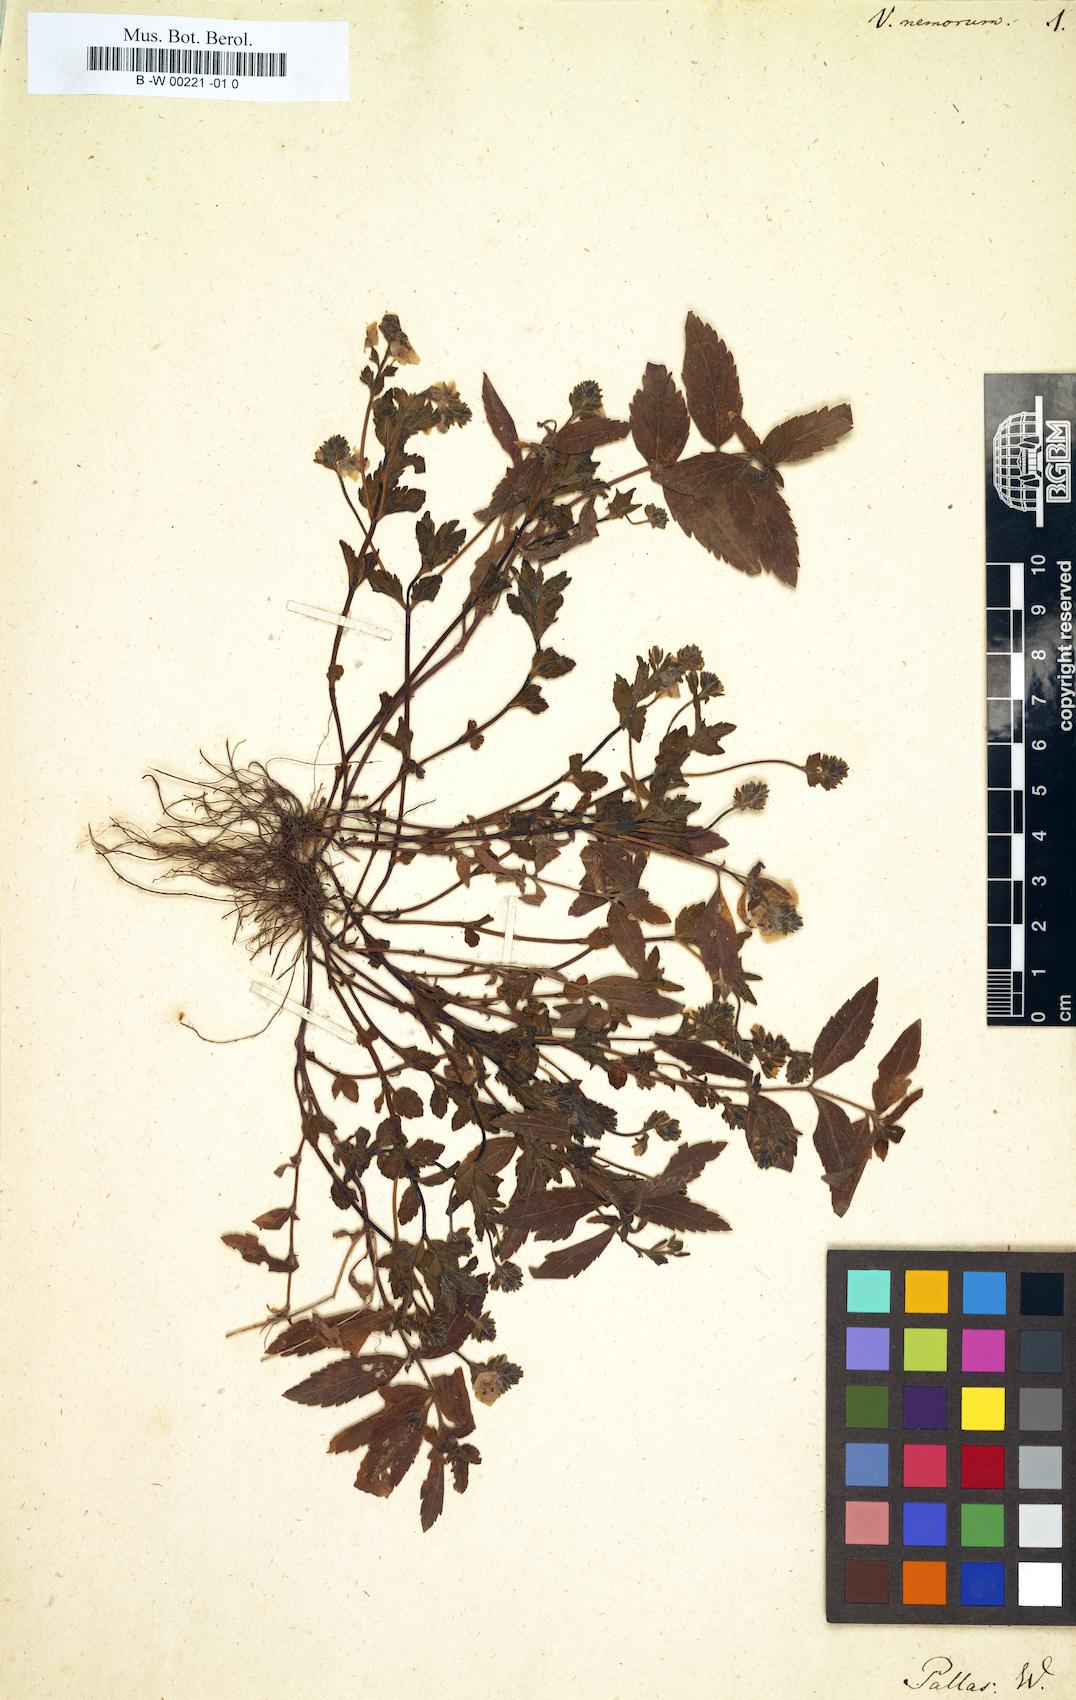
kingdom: Plantae
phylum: Tracheophyta
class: Magnoliopsida
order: Lamiales
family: Plantaginaceae
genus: Veronica
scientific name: Veronica peduncularis
